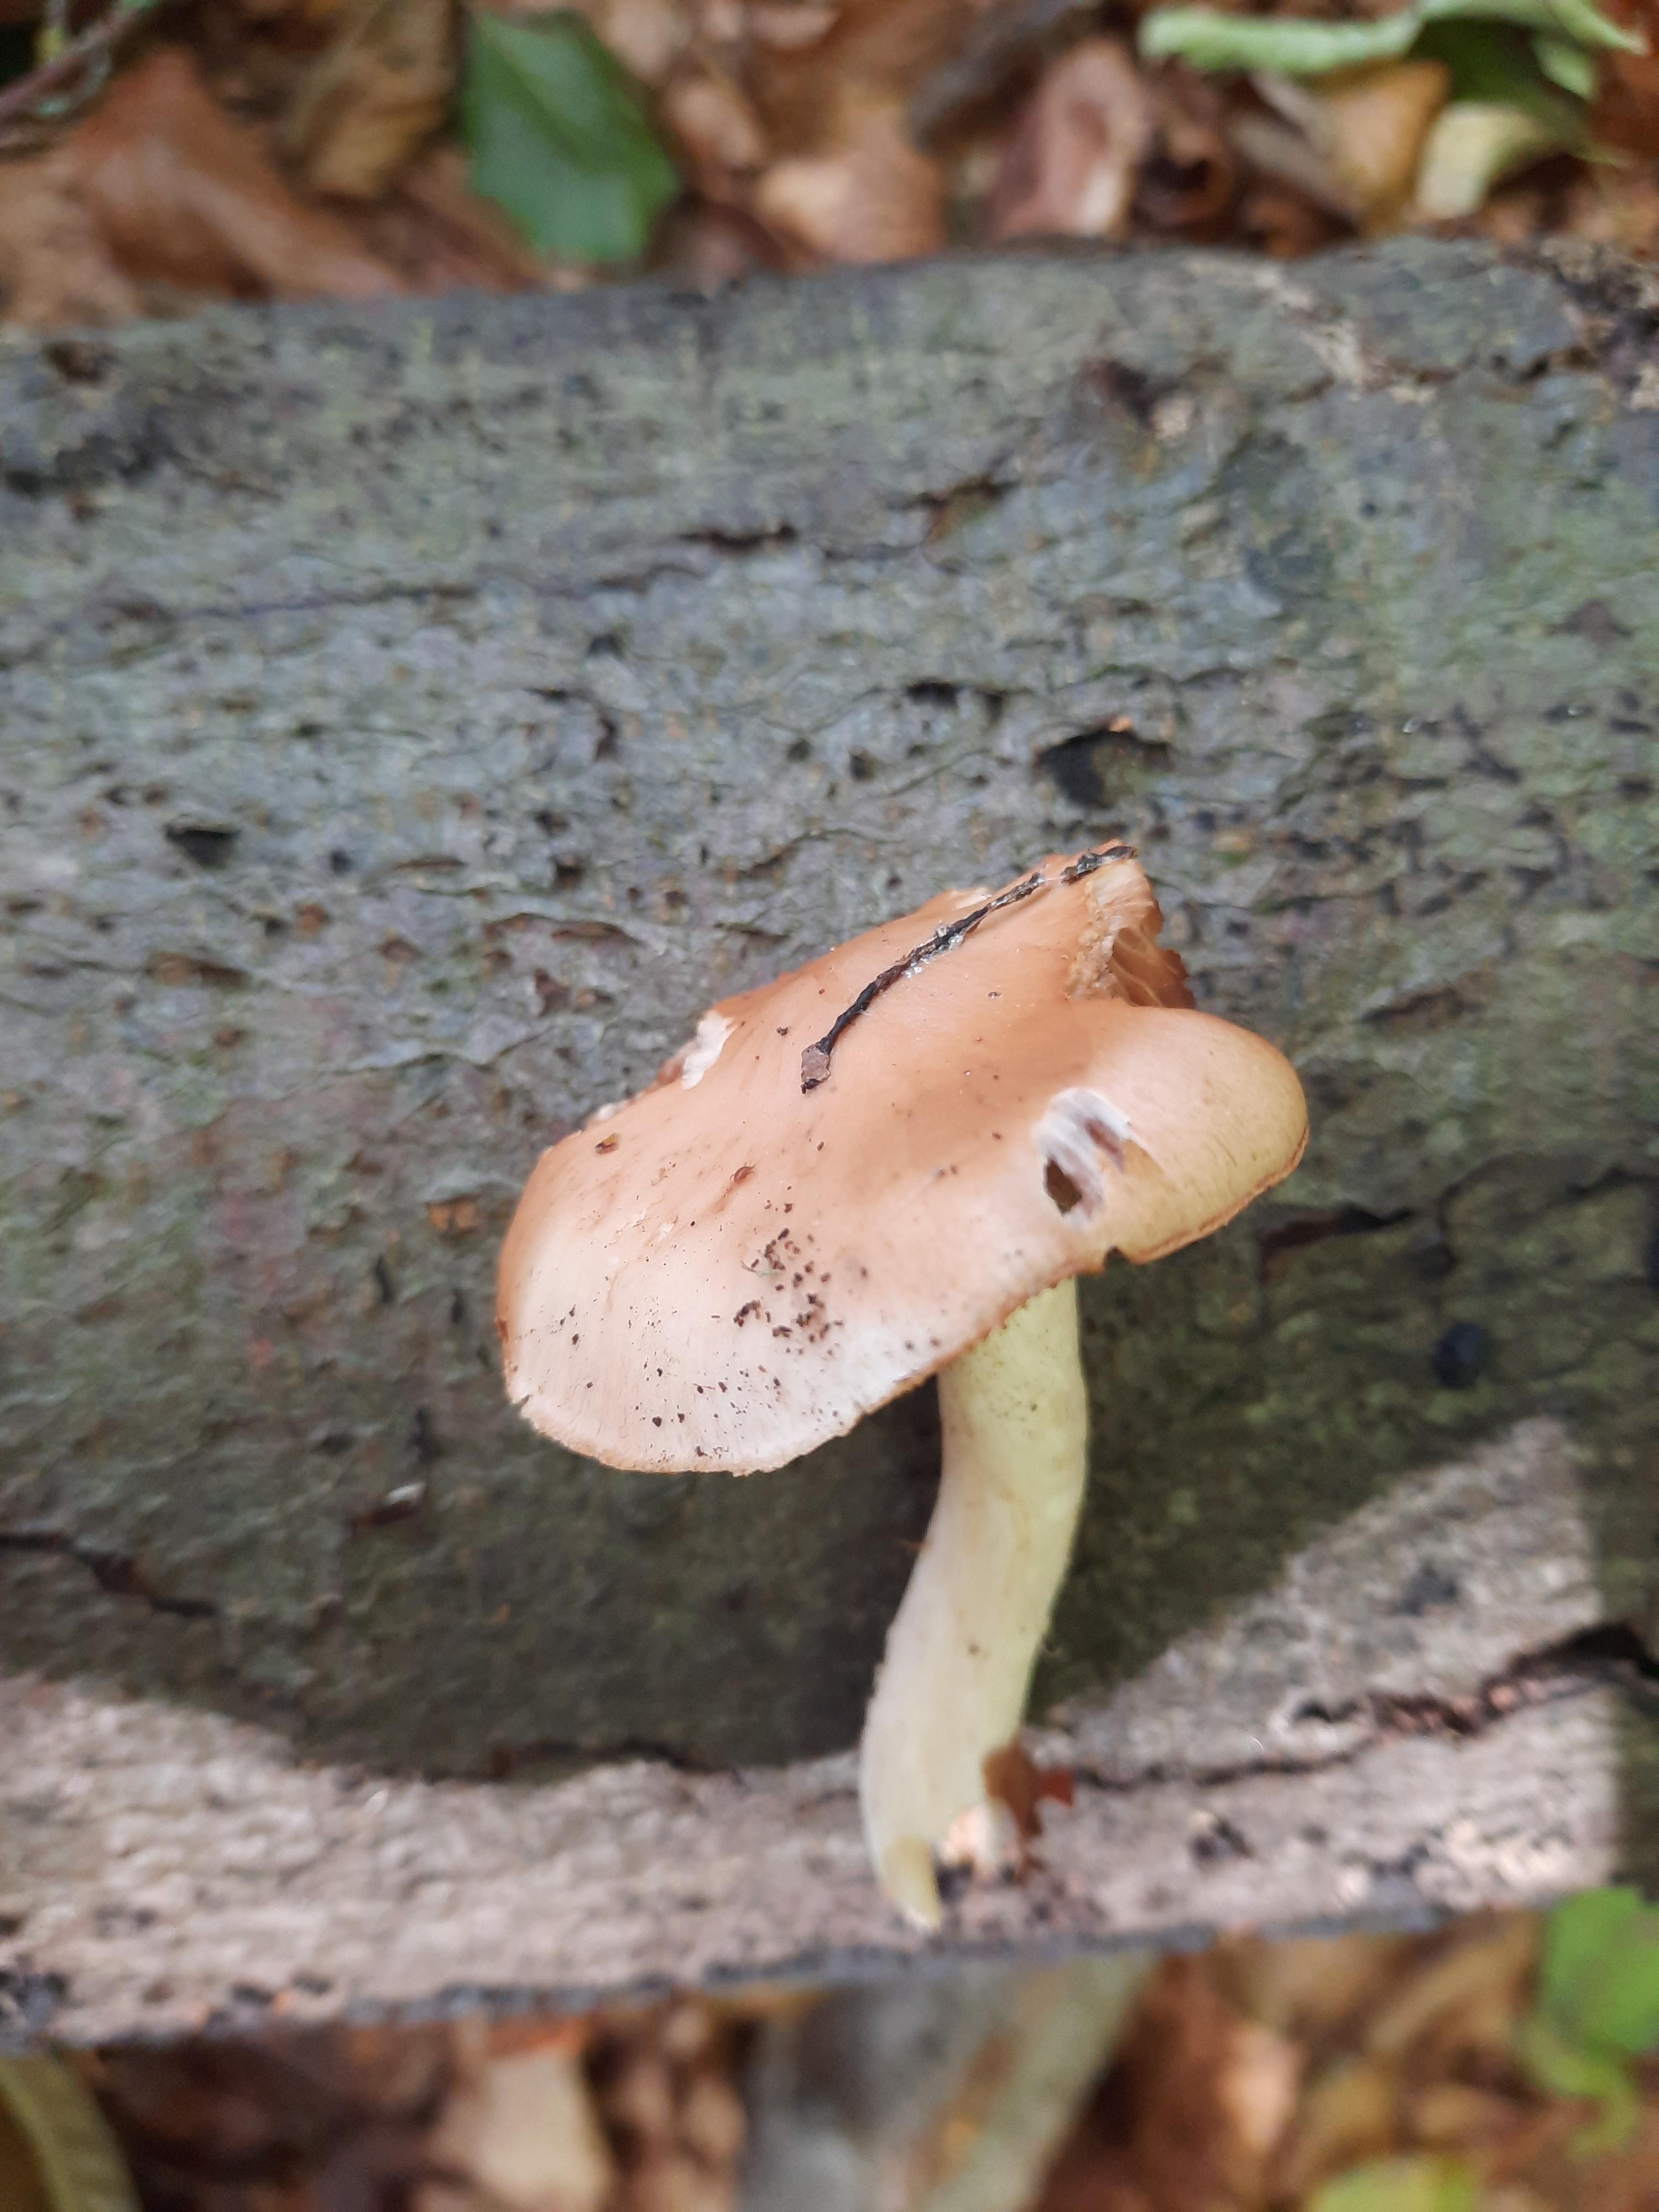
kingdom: Fungi
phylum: Basidiomycota
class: Agaricomycetes
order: Agaricales
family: Hymenogastraceae
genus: Hebeloma
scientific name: Hebeloma
